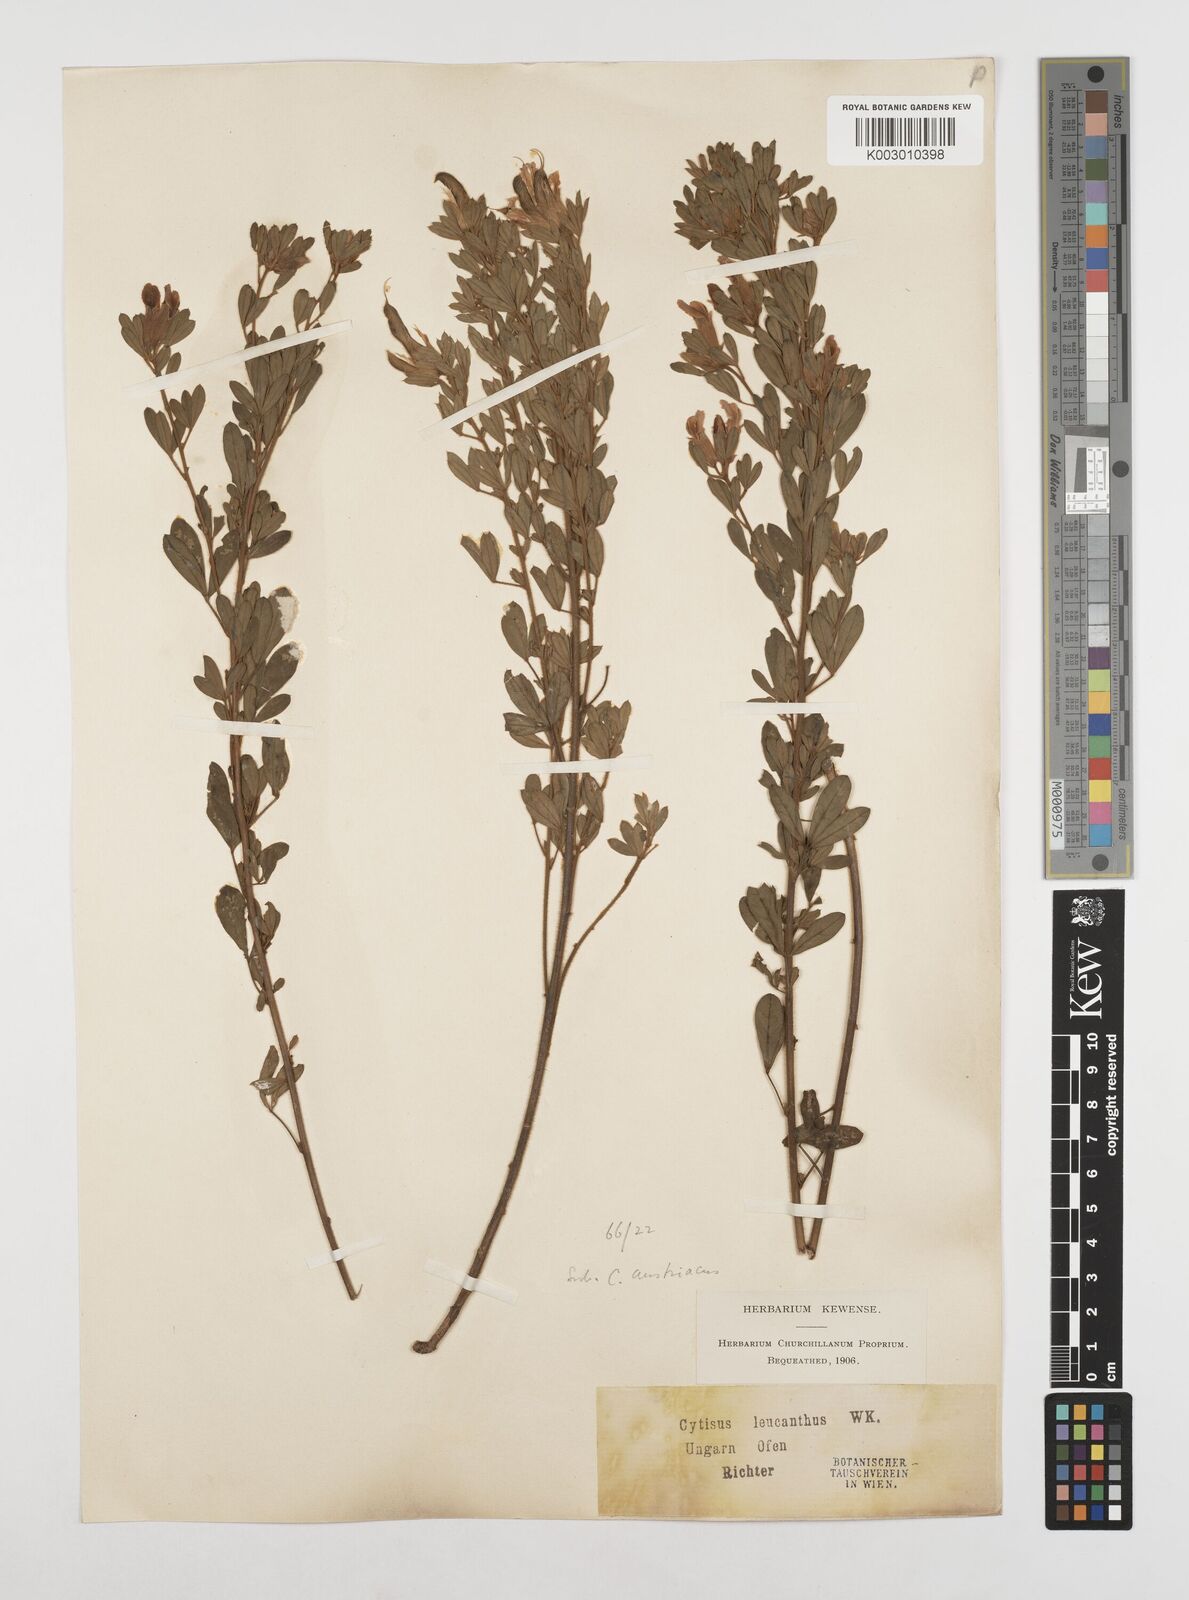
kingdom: Plantae
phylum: Tracheophyta
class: Magnoliopsida
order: Fabales
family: Fabaceae
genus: Chamaecytisus
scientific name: Chamaecytisus rochelii
